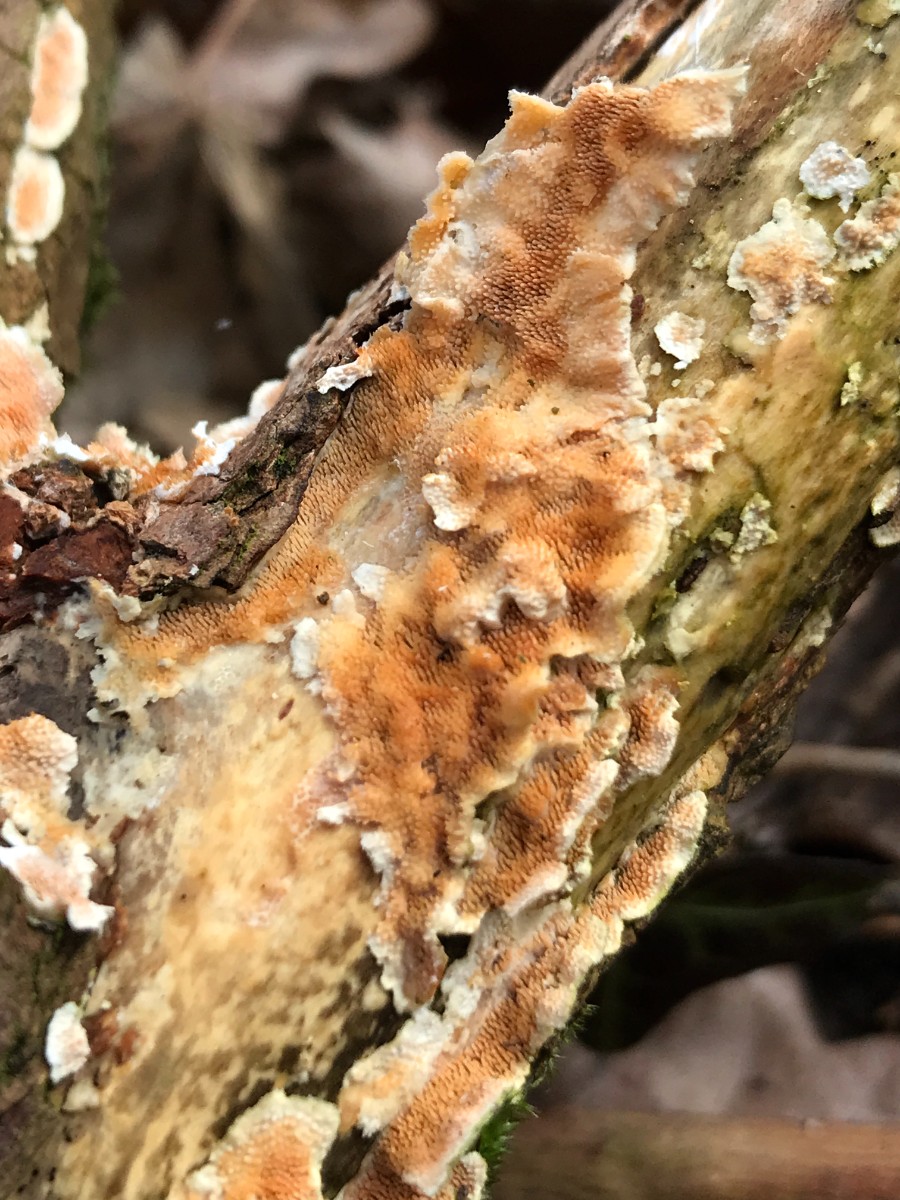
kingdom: Fungi
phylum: Basidiomycota
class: Agaricomycetes
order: Polyporales
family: Steccherinaceae
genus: Steccherinum
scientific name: Steccherinum ochraceum
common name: almindelig skønpig
